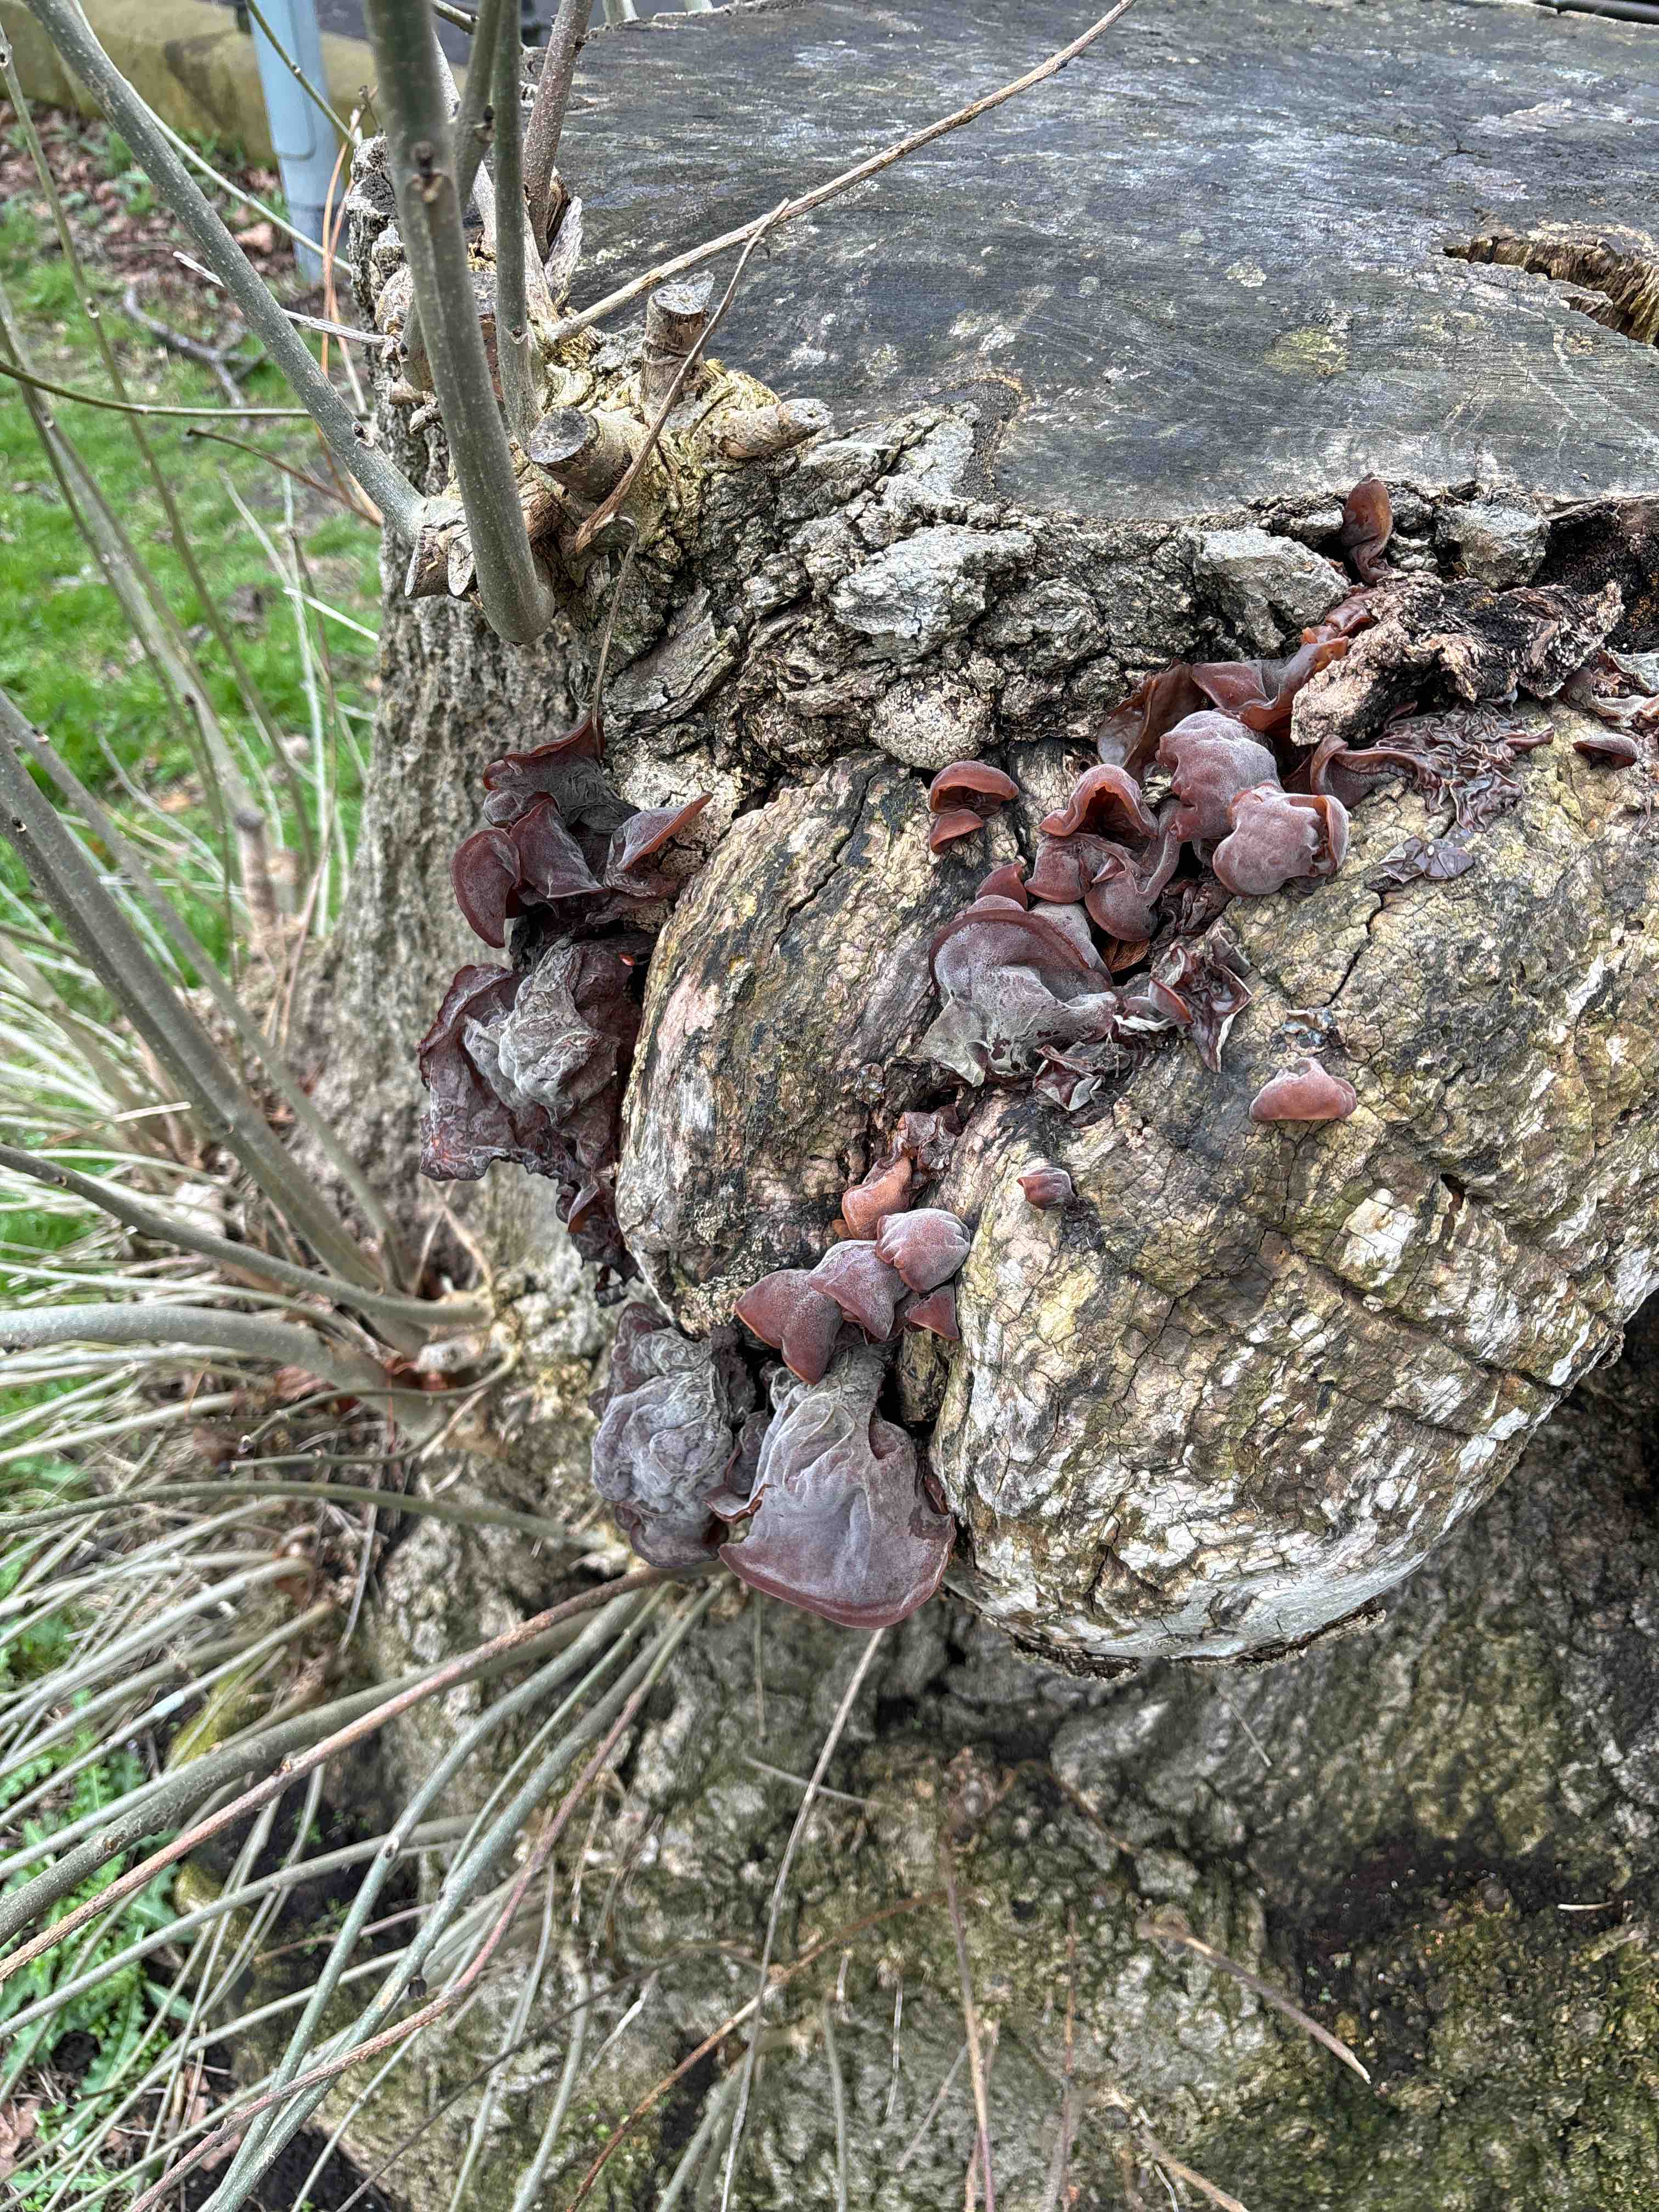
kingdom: Fungi
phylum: Basidiomycota
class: Agaricomycetes
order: Auriculariales
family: Auriculariaceae
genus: Auricularia
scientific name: Auricularia auricula-judae
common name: almindelig judasøre
